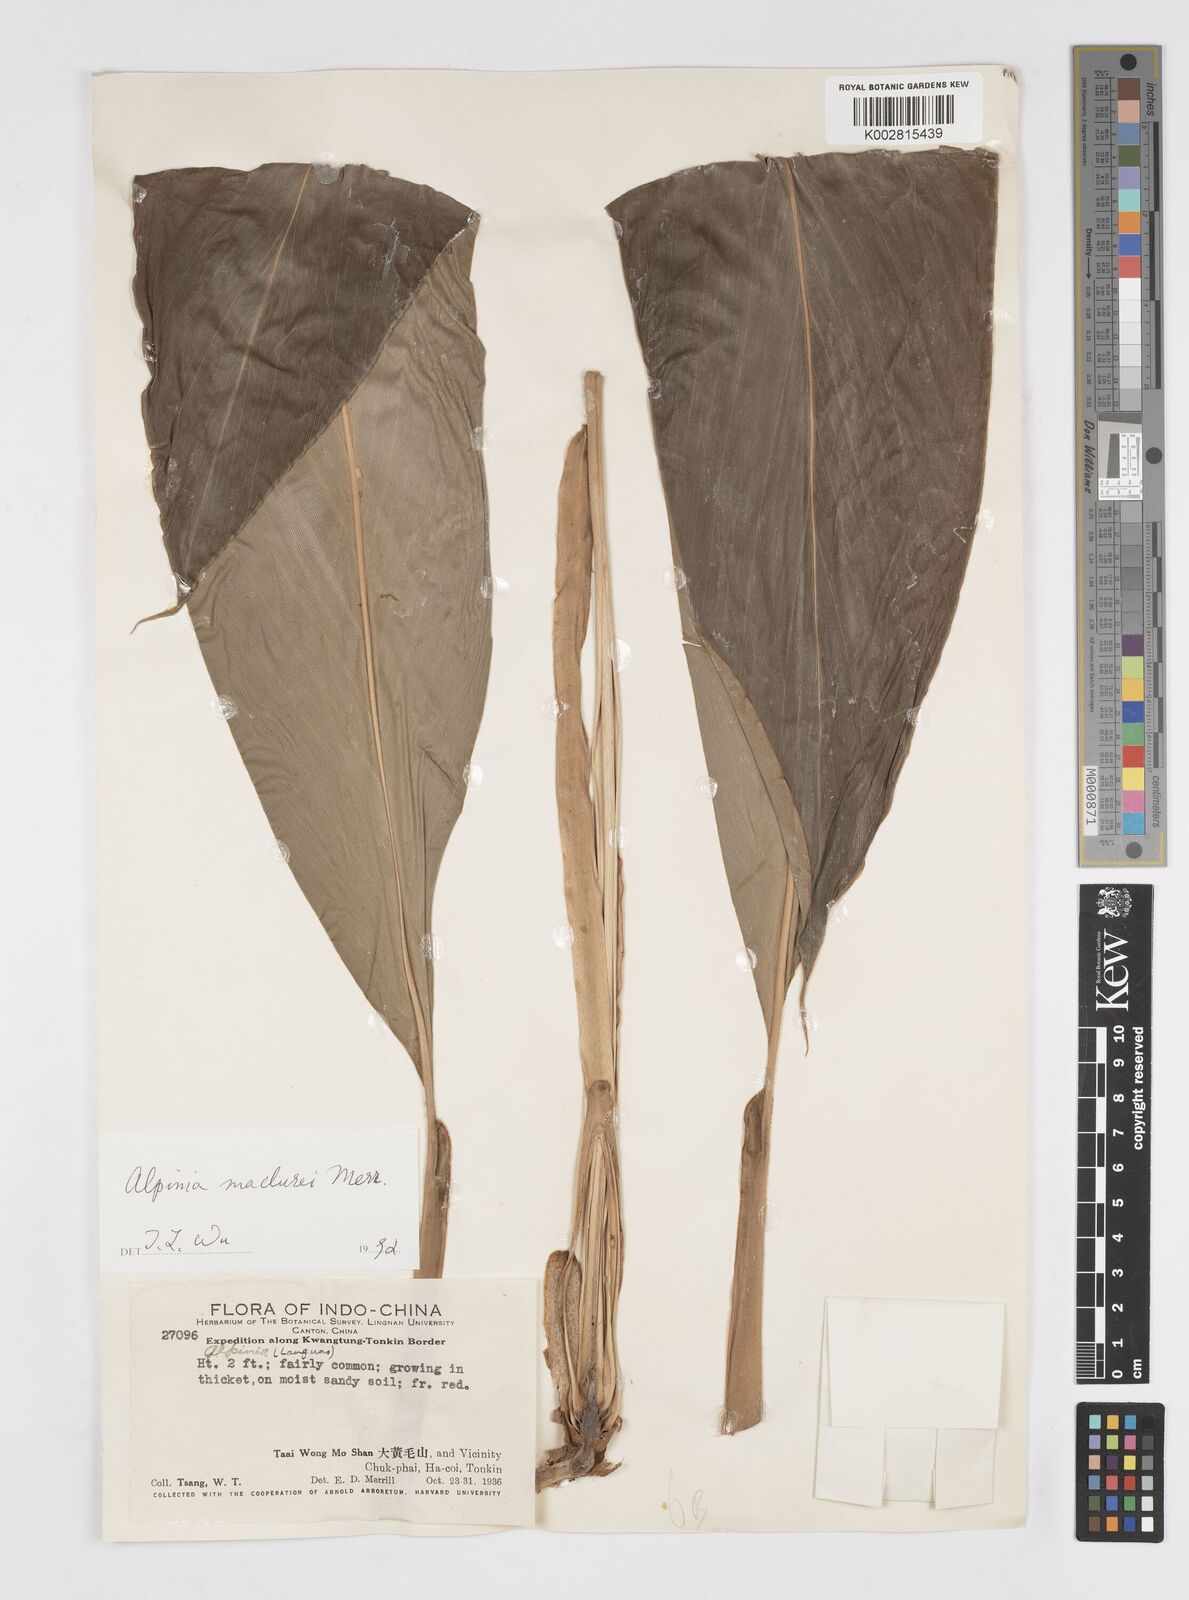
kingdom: Plantae
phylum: Tracheophyta
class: Liliopsida
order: Zingiberales
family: Zingiberaceae
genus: Alpinia
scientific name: Alpinia maclurei
